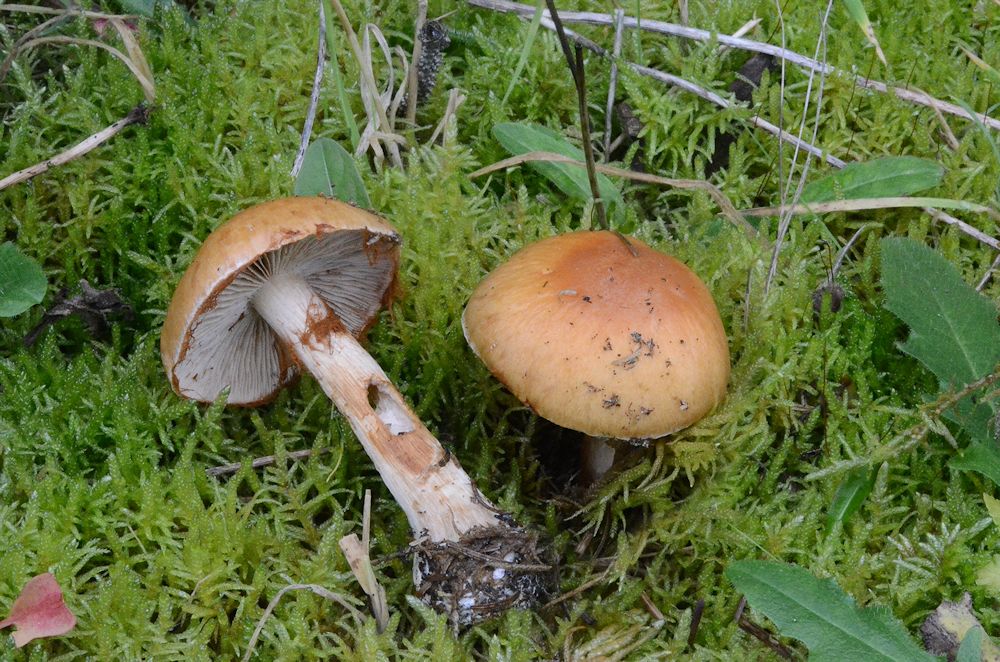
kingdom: Fungi
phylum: Basidiomycota
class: Agaricomycetes
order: Agaricales
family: Cortinariaceae
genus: Thaxterogaster
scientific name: Thaxterogaster multiformis
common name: honning-slørhat
